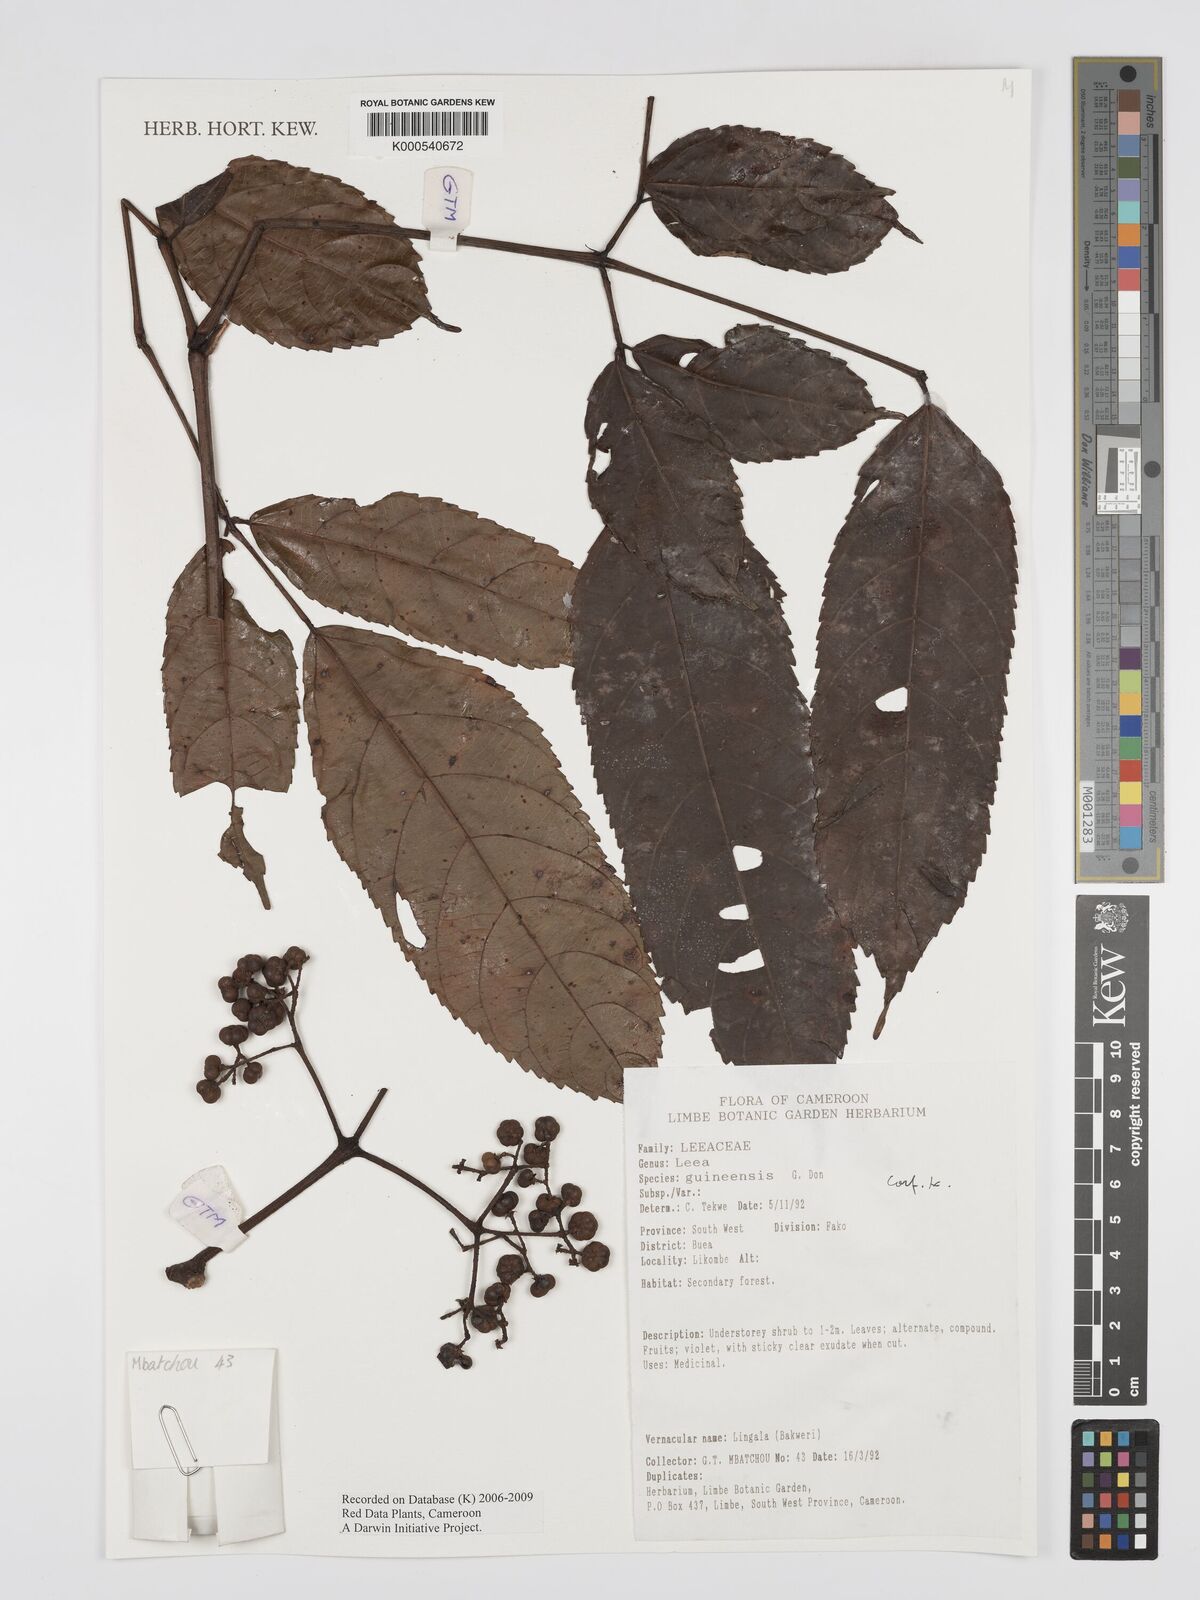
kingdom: Plantae
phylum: Tracheophyta
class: Magnoliopsida
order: Vitales
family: Vitaceae
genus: Leea
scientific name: Leea guineensis
